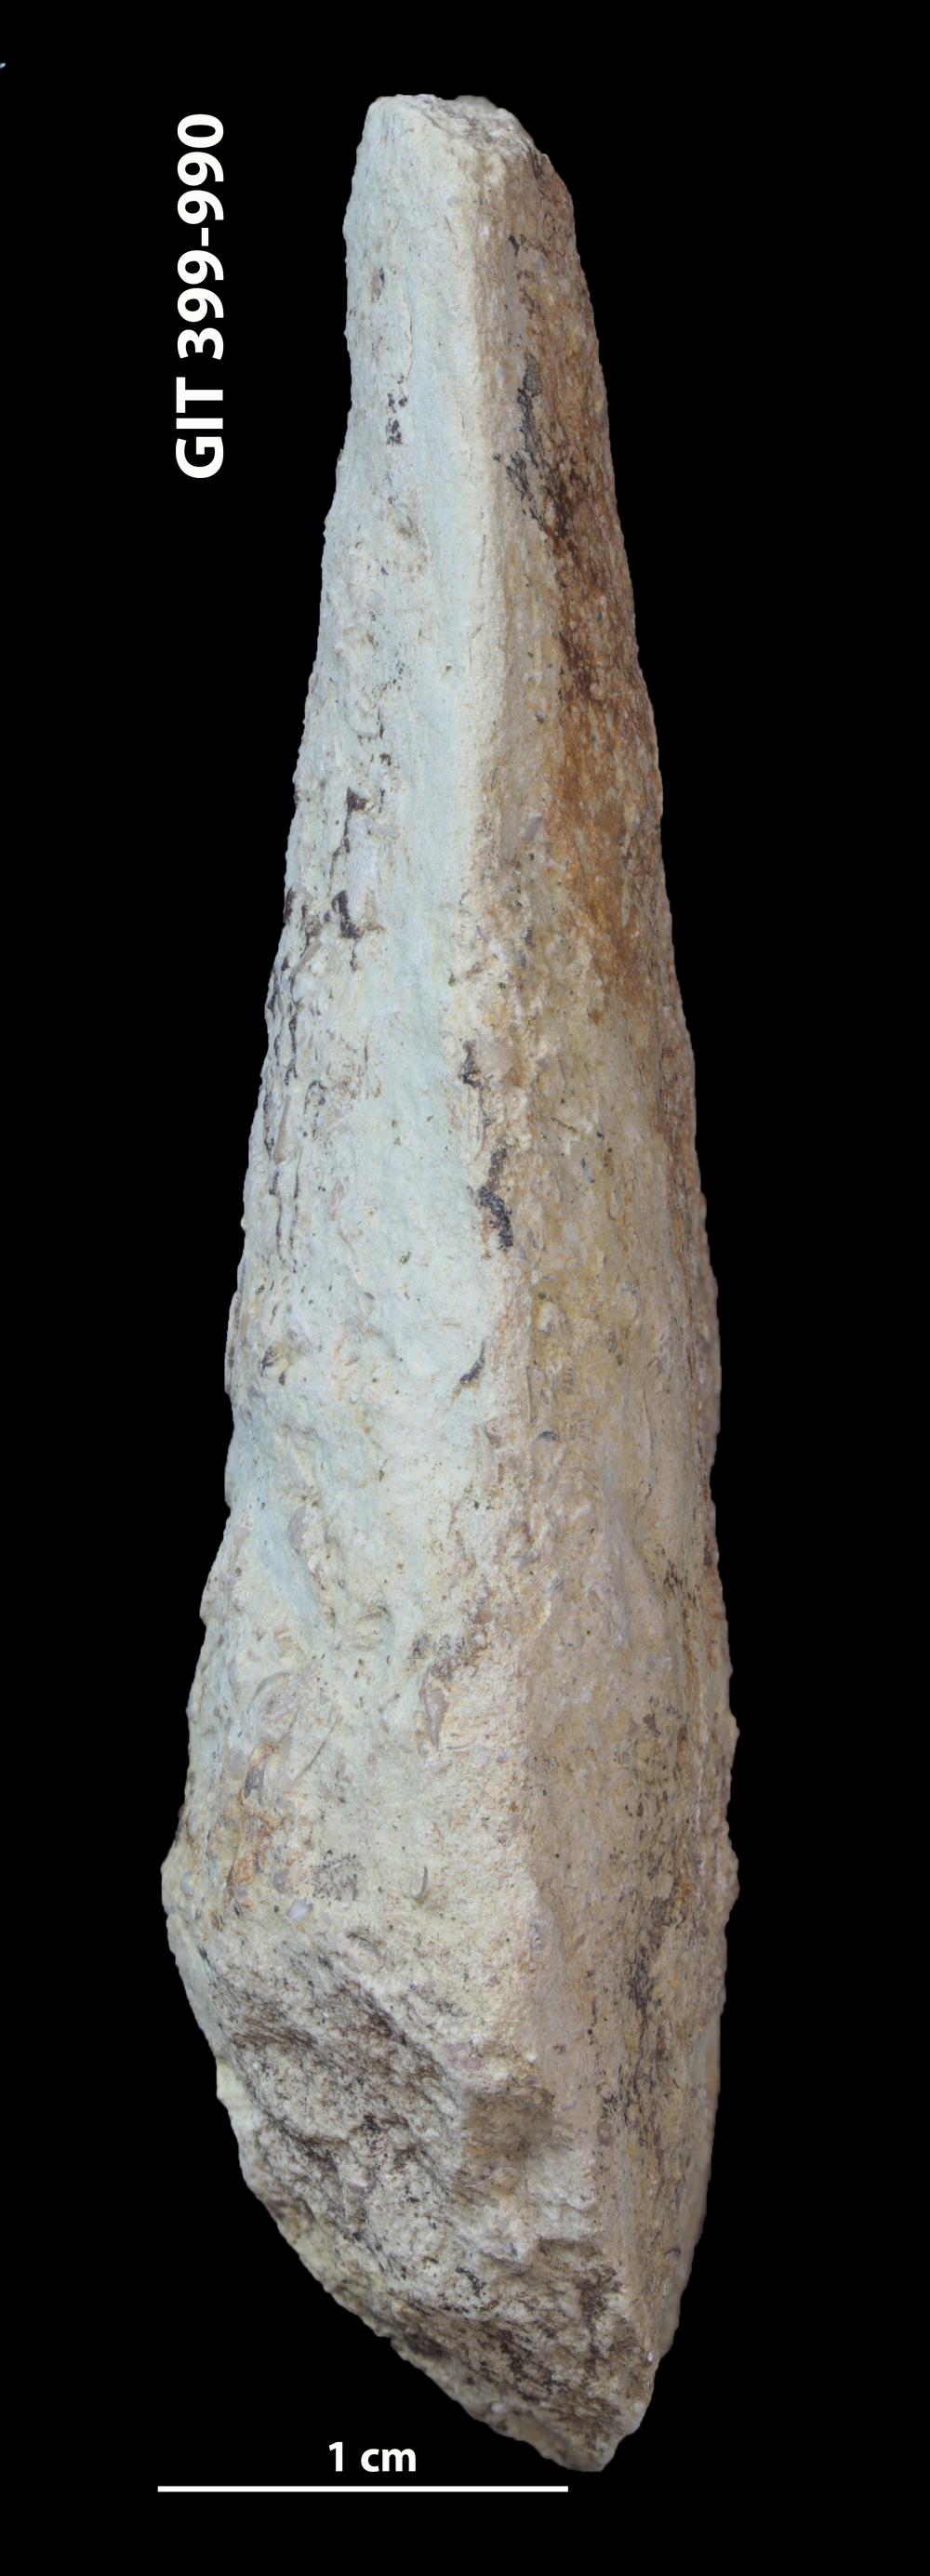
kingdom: Animalia
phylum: Annelida
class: Polychaeta
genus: Hyolithes
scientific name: Hyolithes
